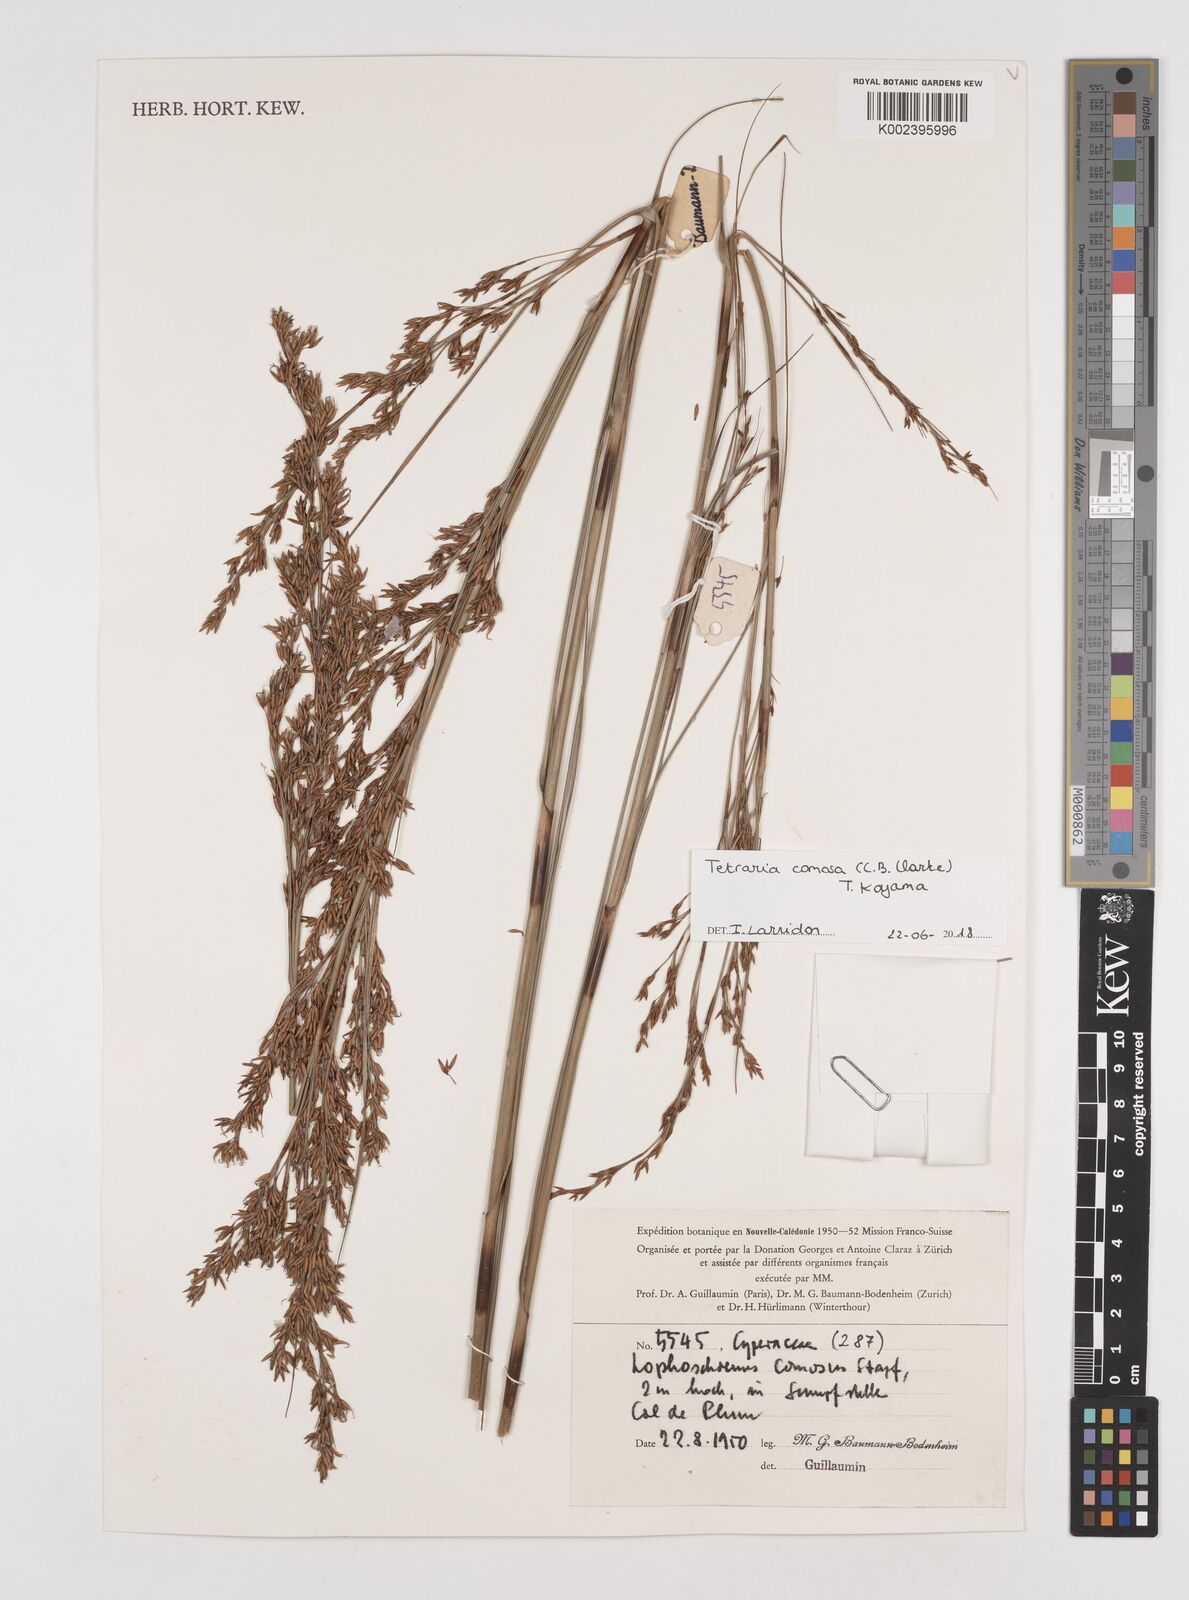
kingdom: Plantae
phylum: Tracheophyta
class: Liliopsida
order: Poales
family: Cyperaceae
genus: Tetraria
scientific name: Tetraria comosa
